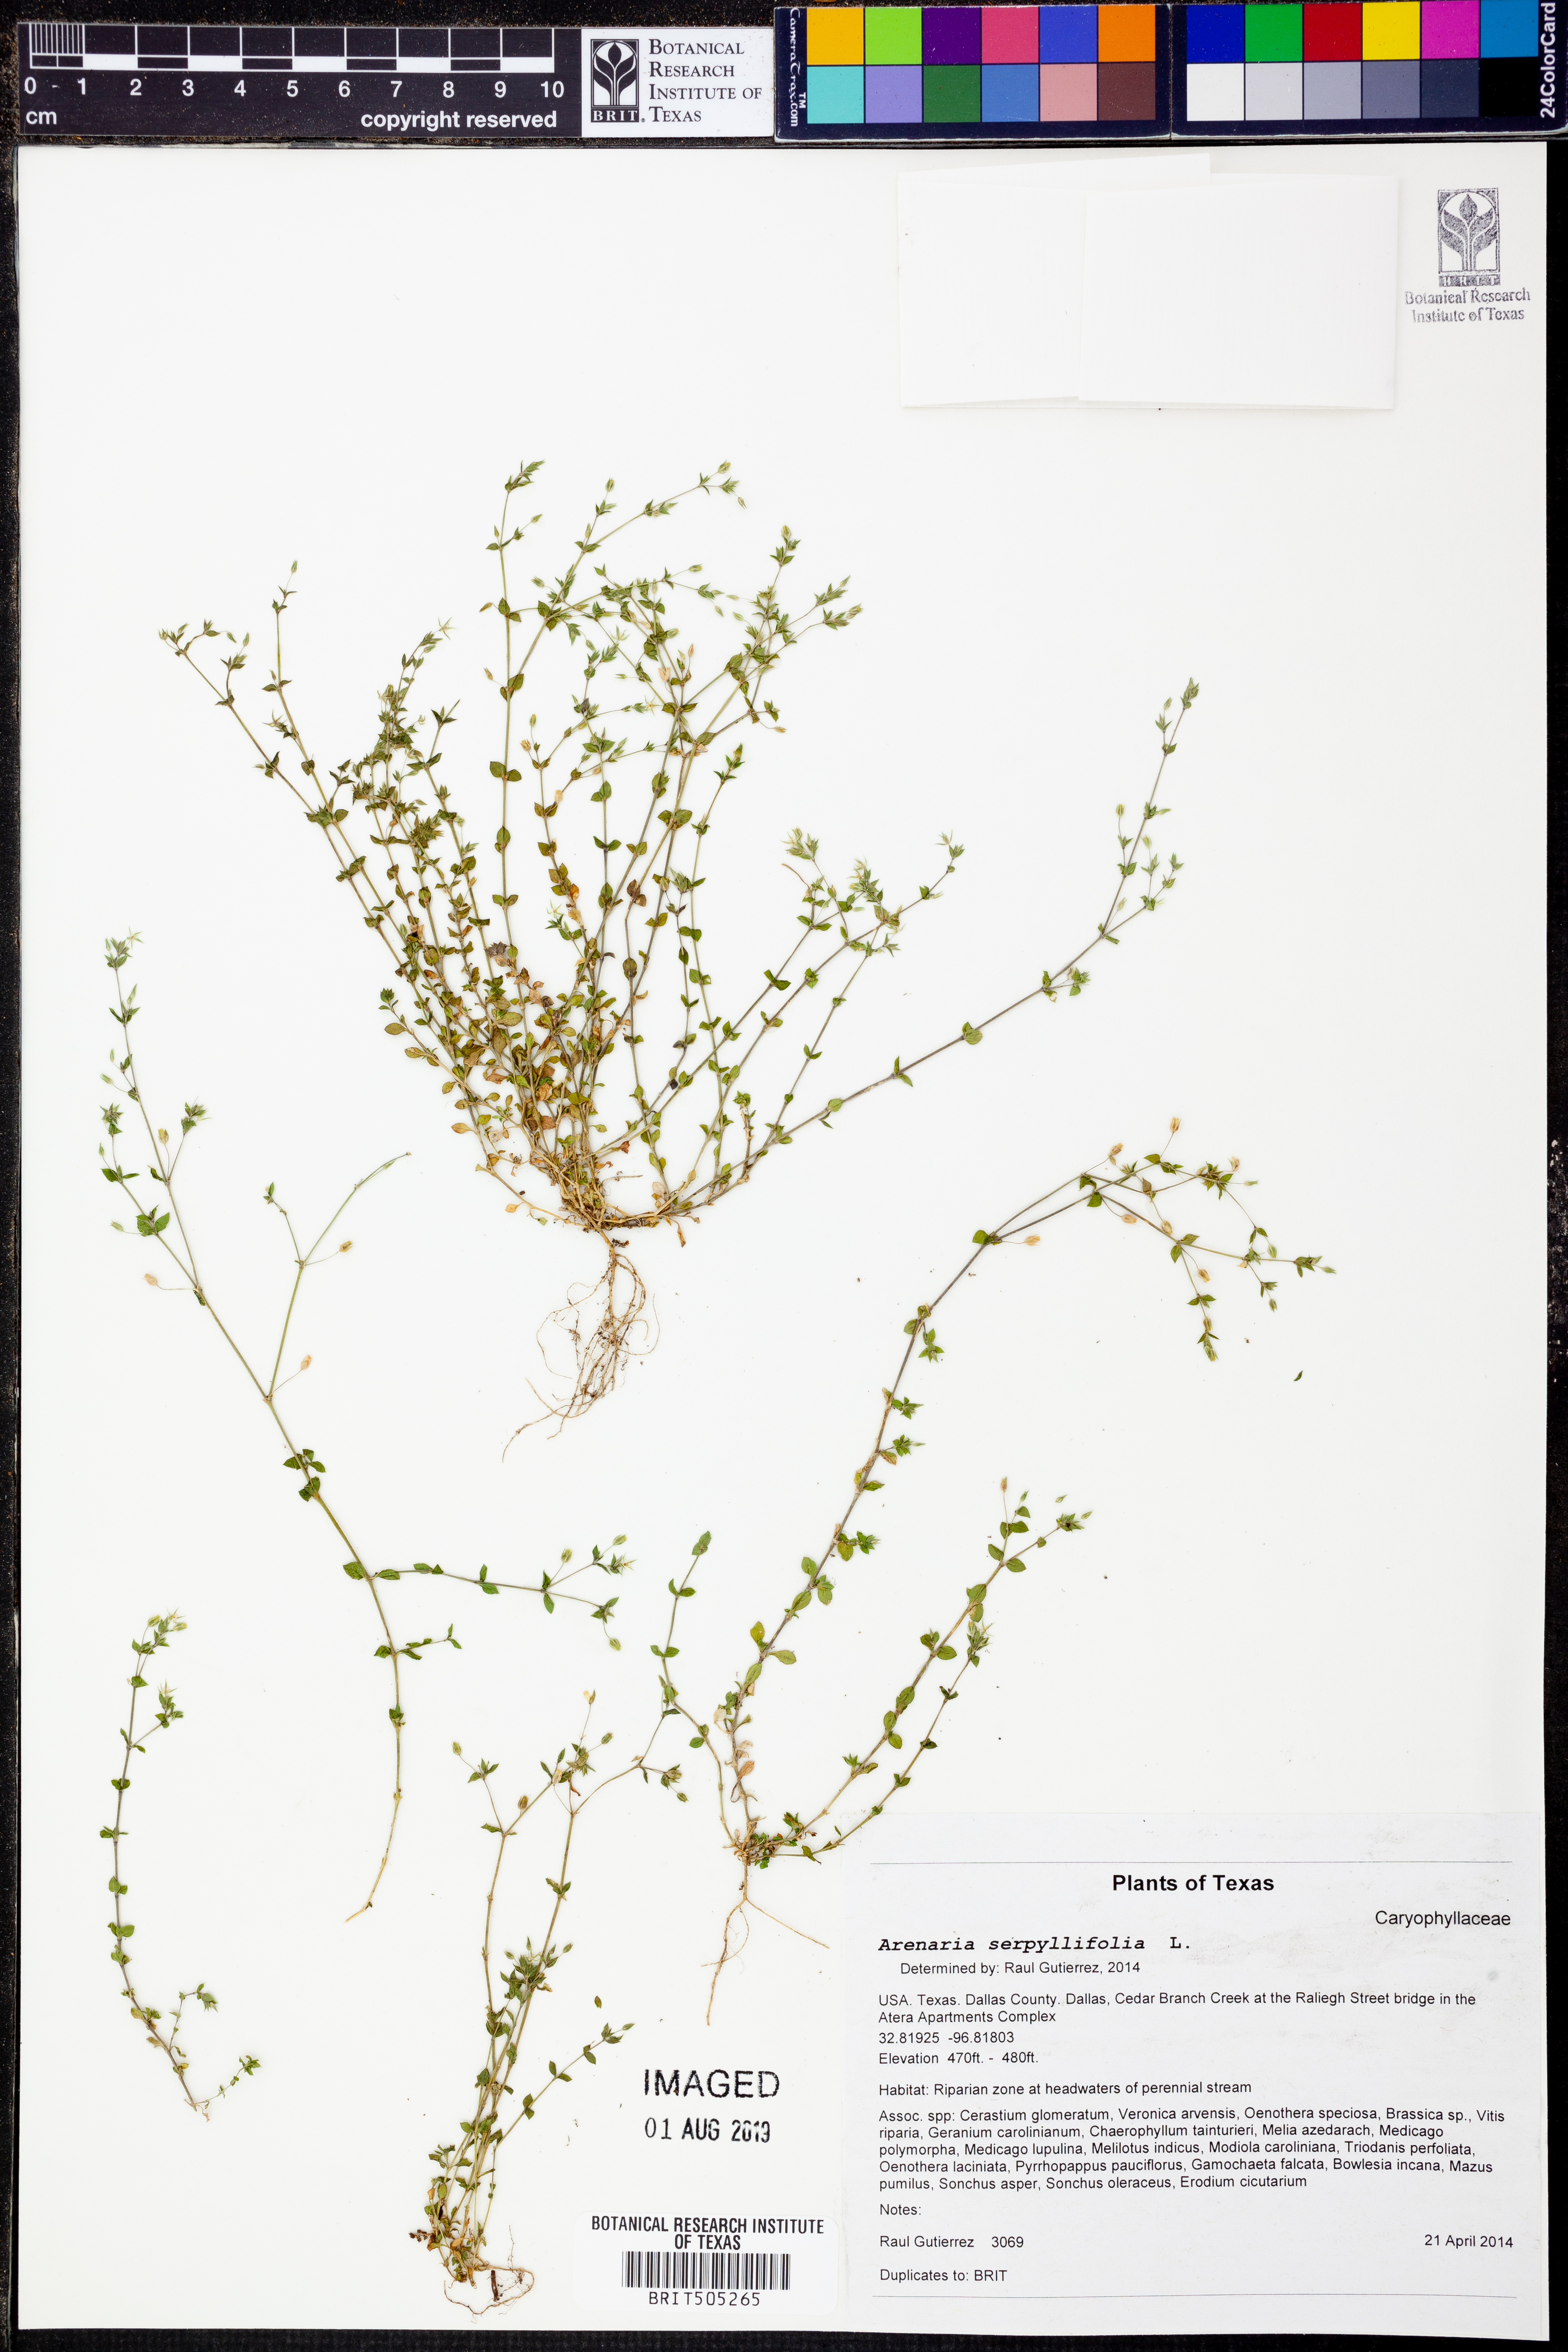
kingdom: Plantae
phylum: Tracheophyta
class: Magnoliopsida
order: Caryophyllales
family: Caryophyllaceae
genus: Arenaria
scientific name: Arenaria serpyllifolia
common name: Thyme-leaved sandwort
